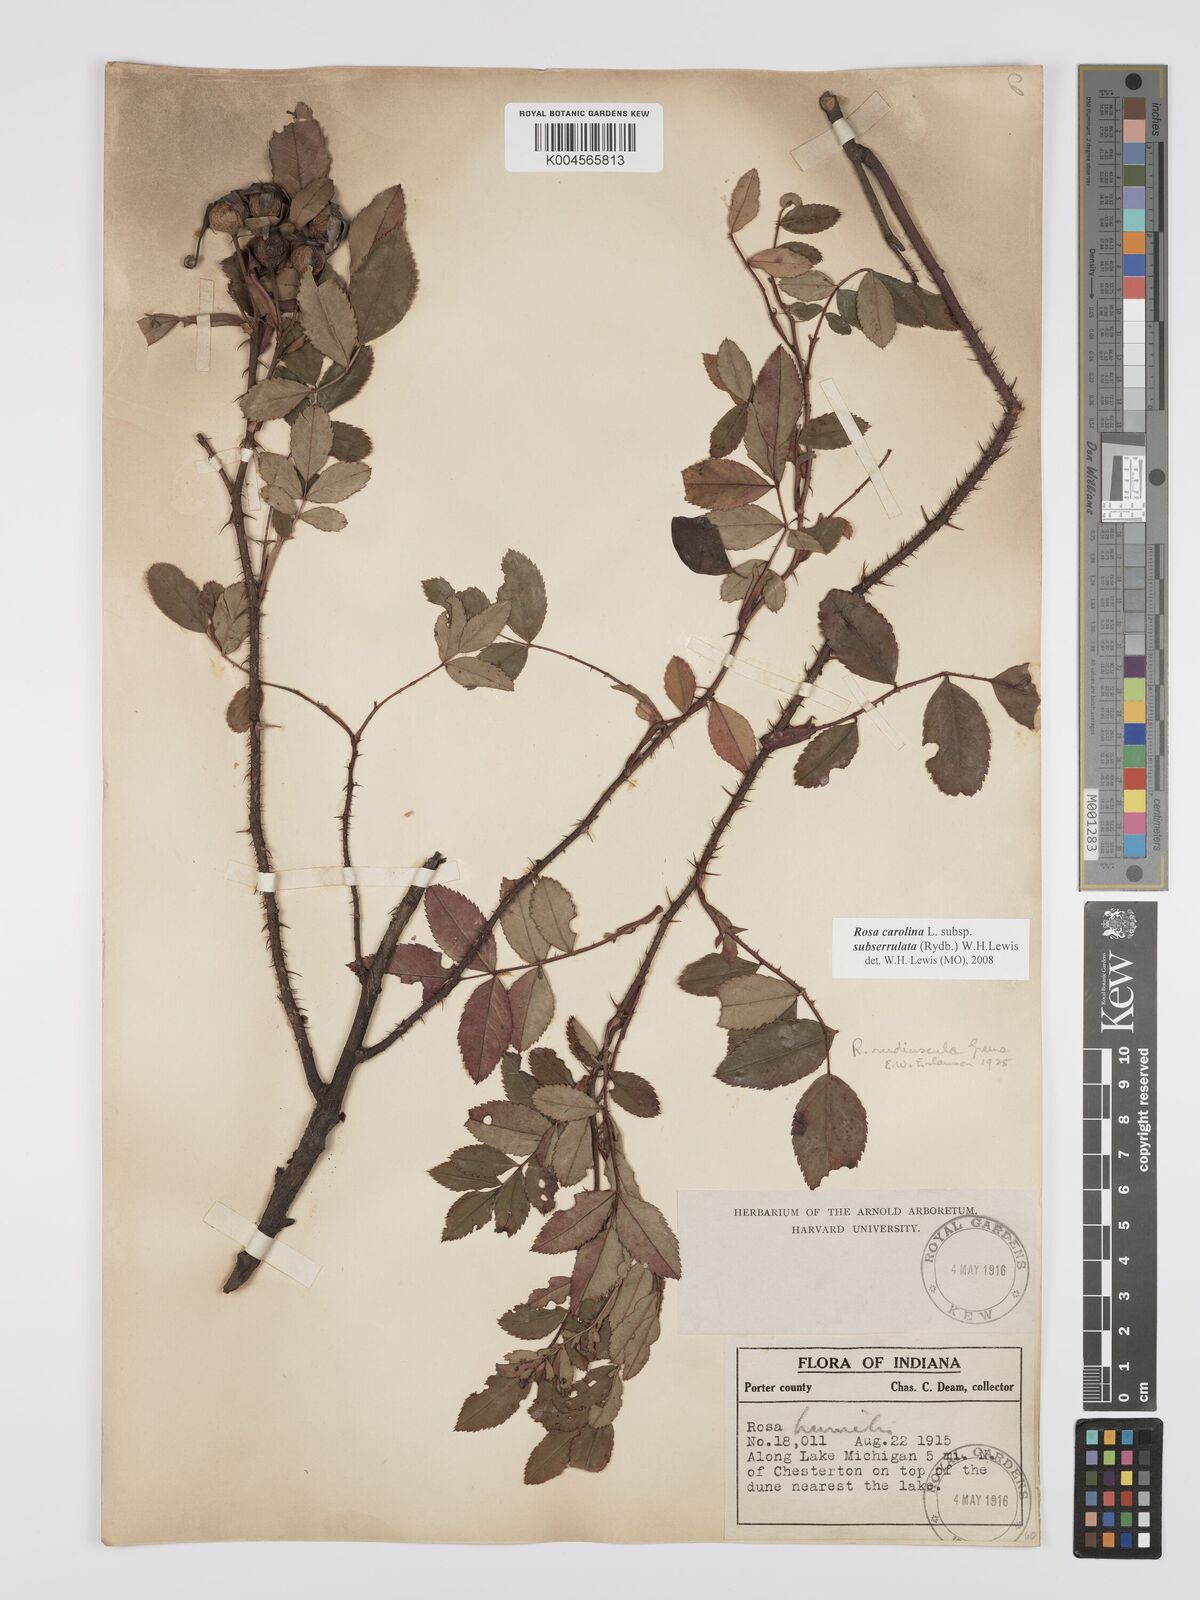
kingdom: Plantae
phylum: Tracheophyta
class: Magnoliopsida
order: Rosales
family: Rosaceae
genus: Rosa
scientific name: Rosa carolina
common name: Pasture rose
